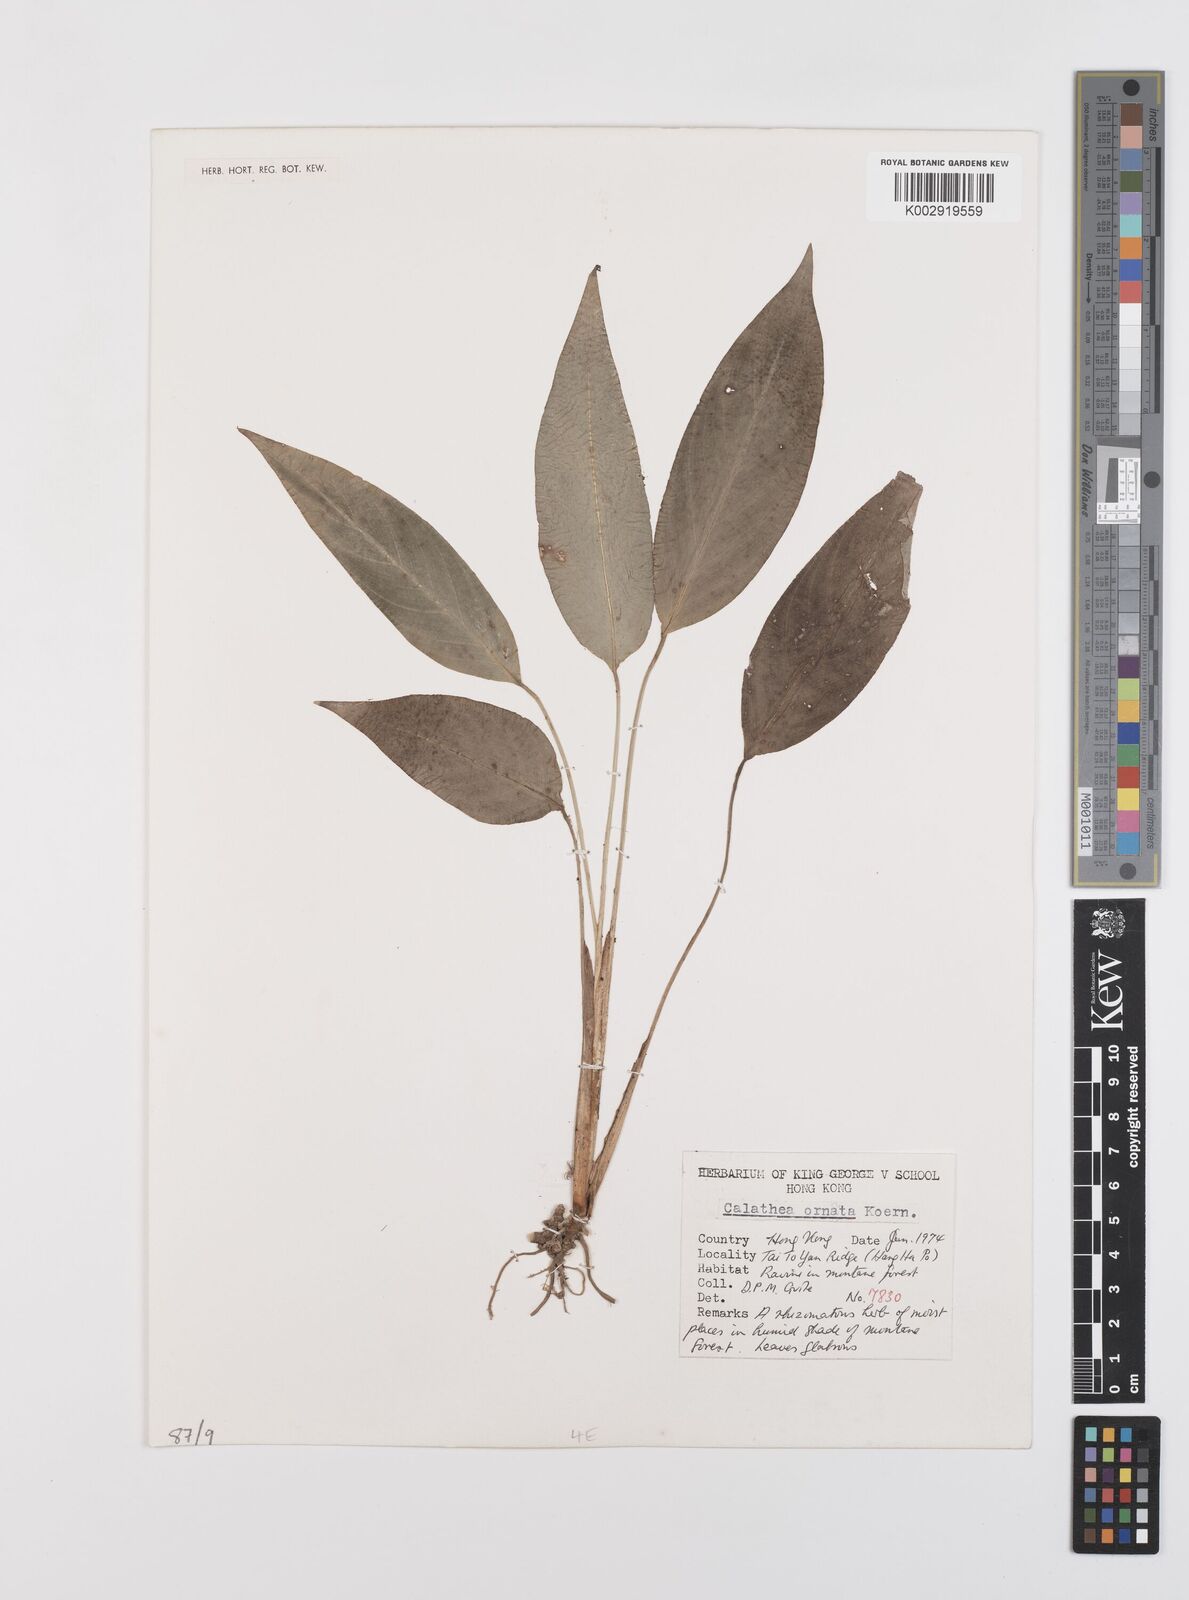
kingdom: Plantae
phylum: Tracheophyta
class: Liliopsida
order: Zingiberales
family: Marantaceae
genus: Goeppertia
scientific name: Goeppertia ornata
